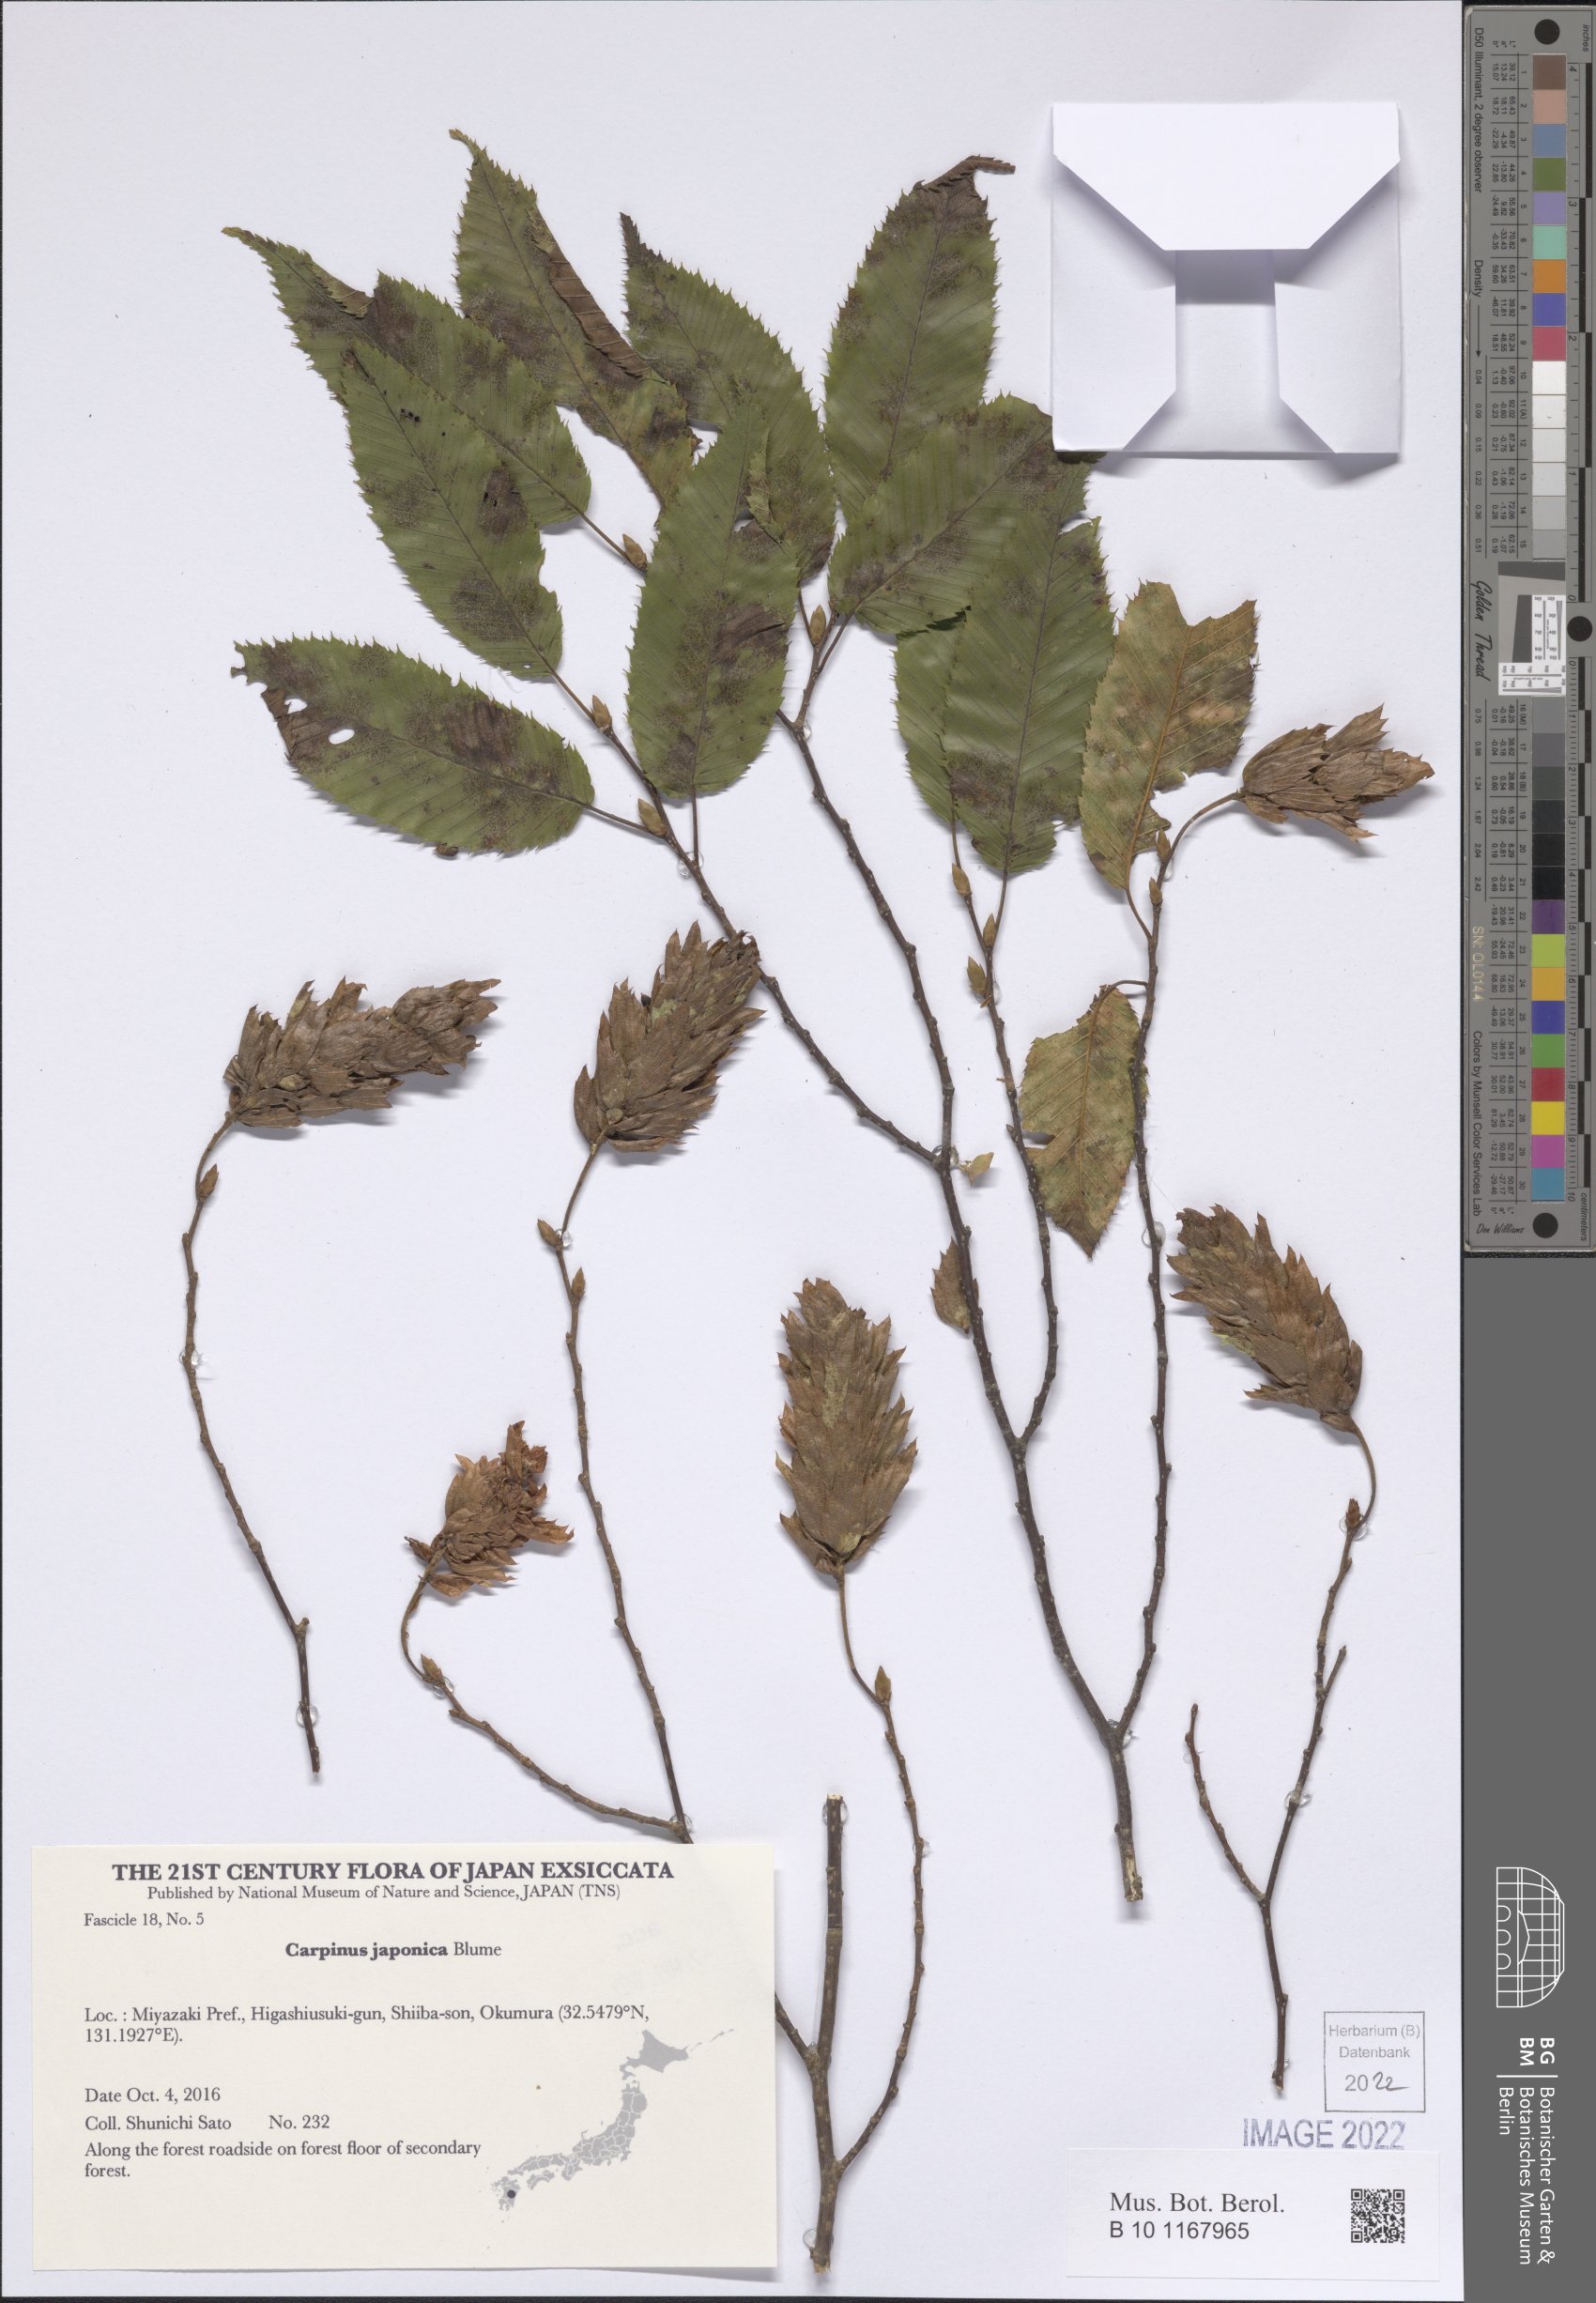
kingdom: Plantae
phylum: Tracheophyta
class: Magnoliopsida
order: Fagales
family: Betulaceae
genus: Carpinus
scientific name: Carpinus japonica
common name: Japanese hornbeam
